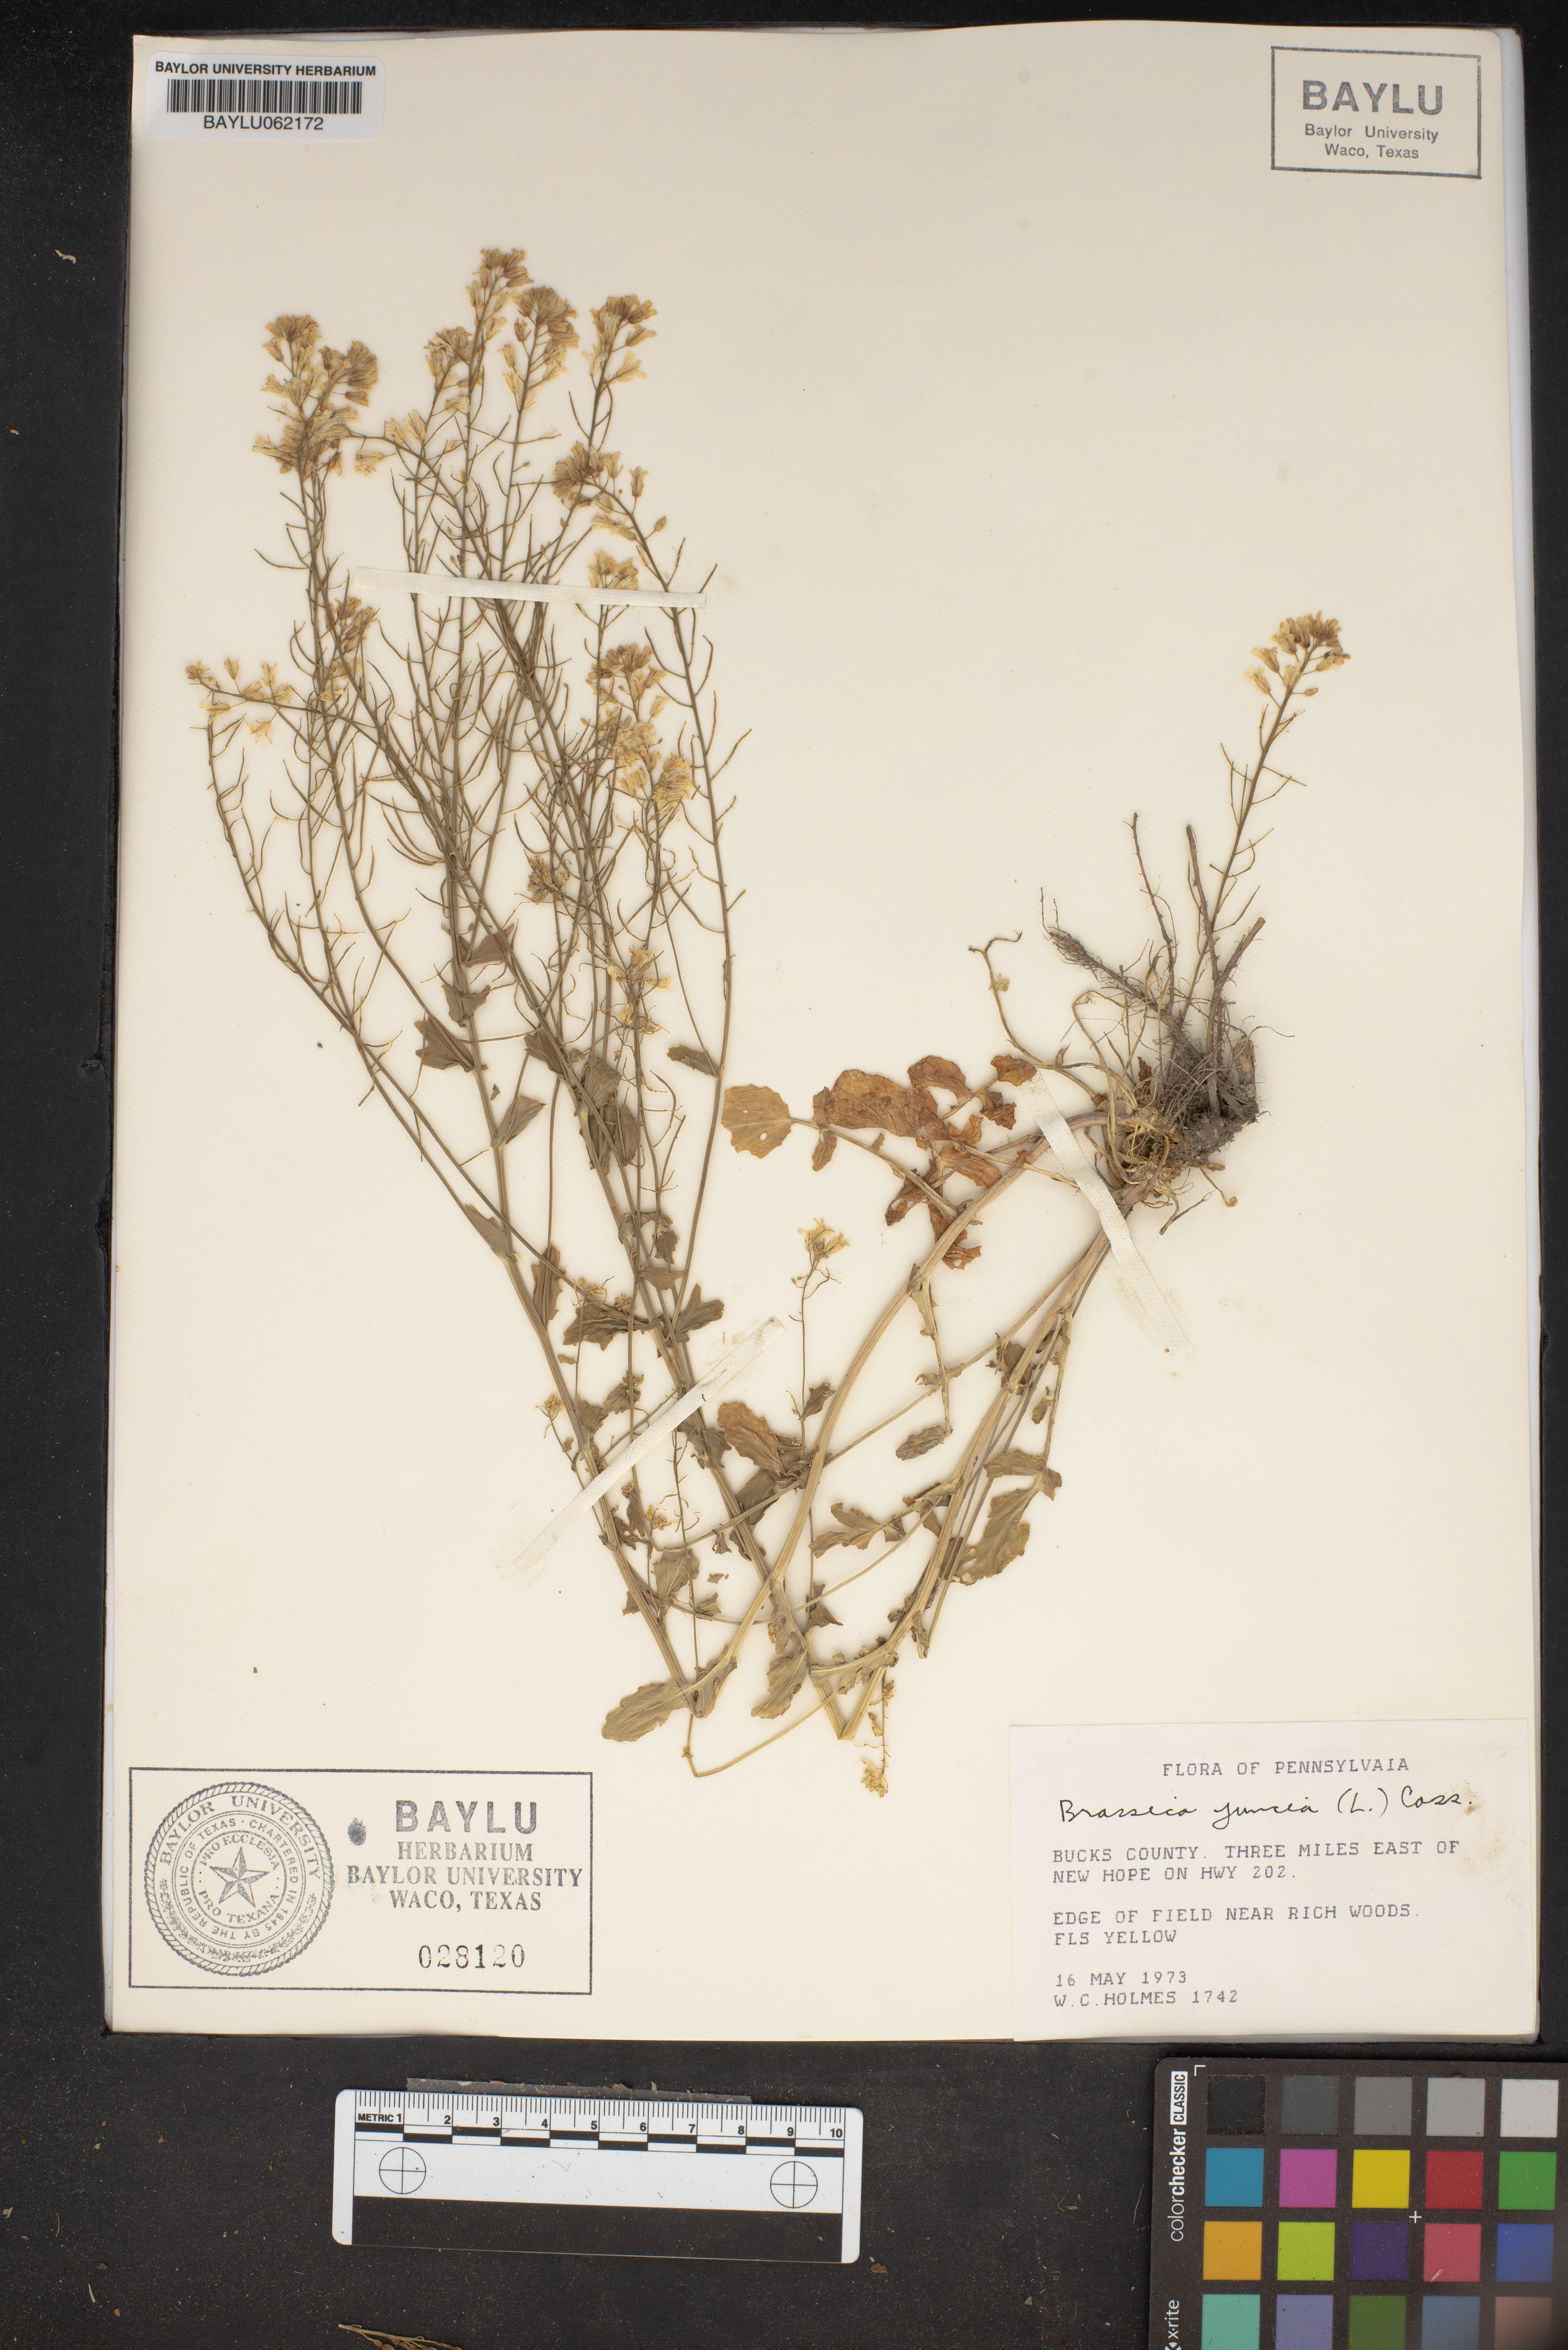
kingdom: Plantae
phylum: Tracheophyta
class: Magnoliopsida
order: Brassicales
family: Brassicaceae
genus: Brassica
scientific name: Brassica juncea
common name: Brown mustard
